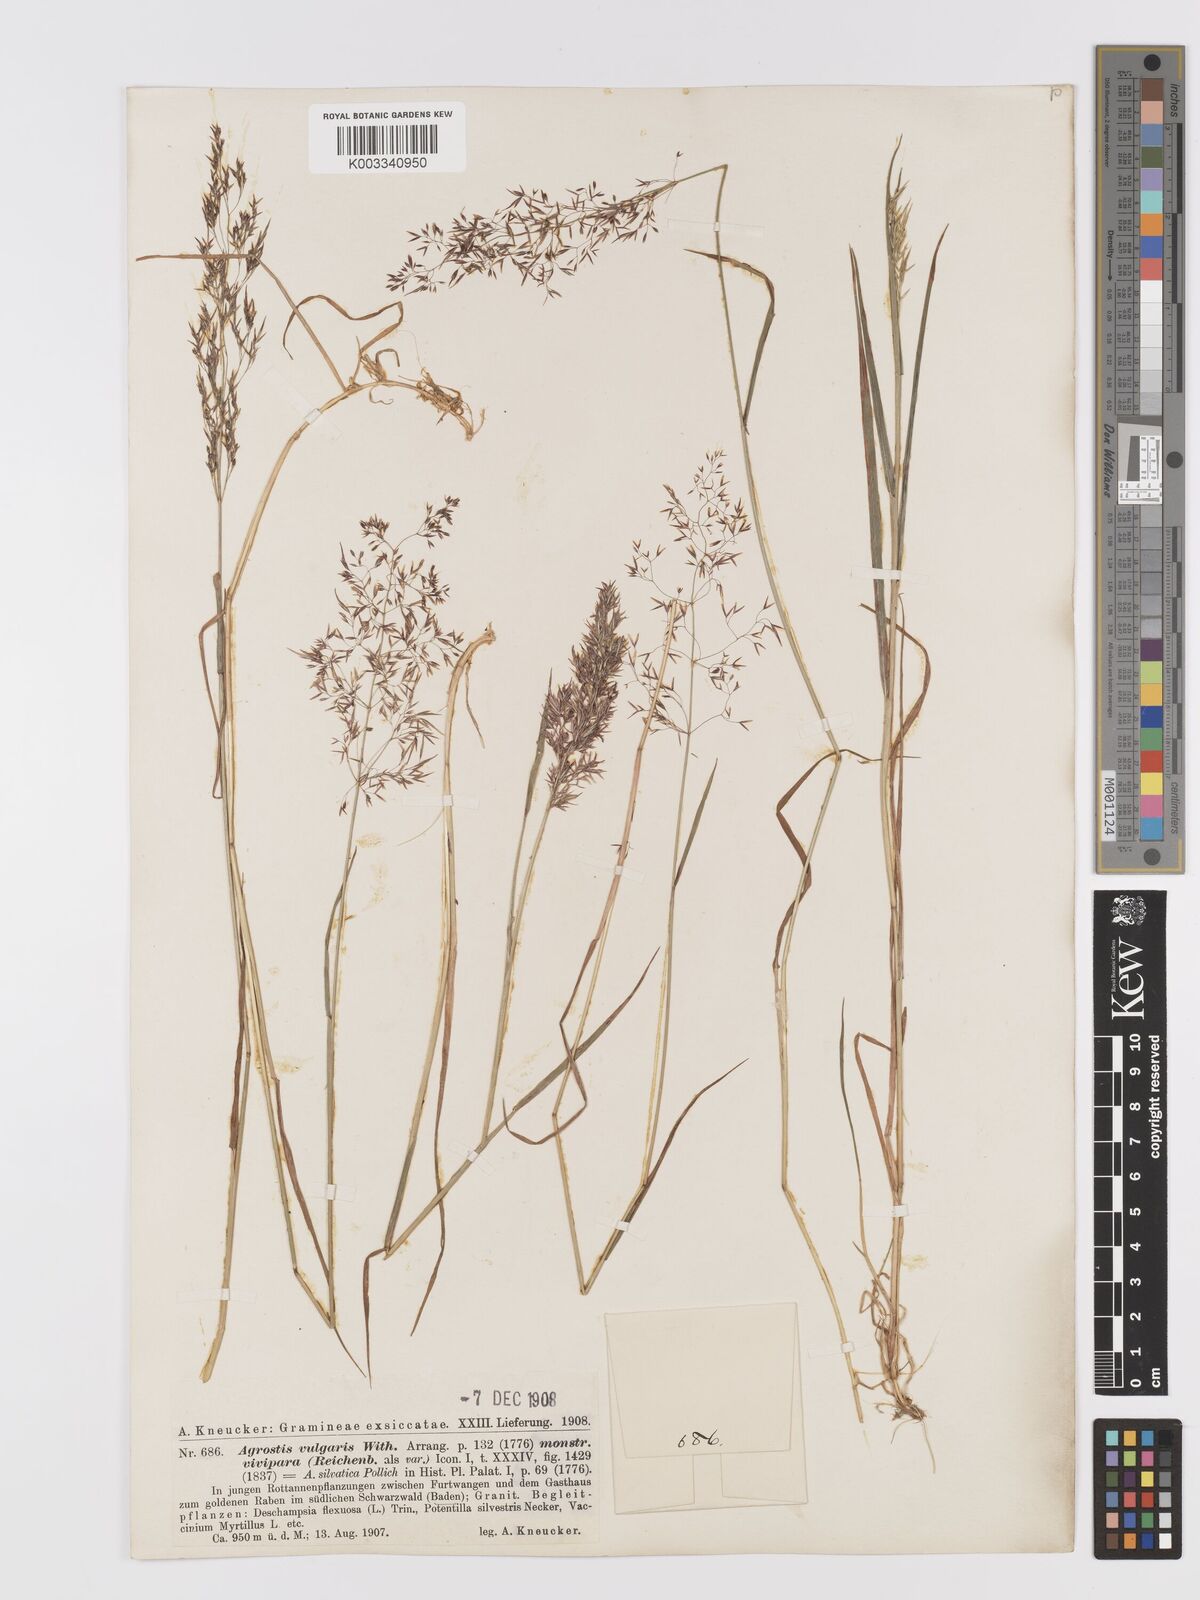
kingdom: Plantae
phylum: Tracheophyta
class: Liliopsida
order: Poales
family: Poaceae
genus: Agrostis
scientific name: Agrostis capillaris
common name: Colonial bentgrass
